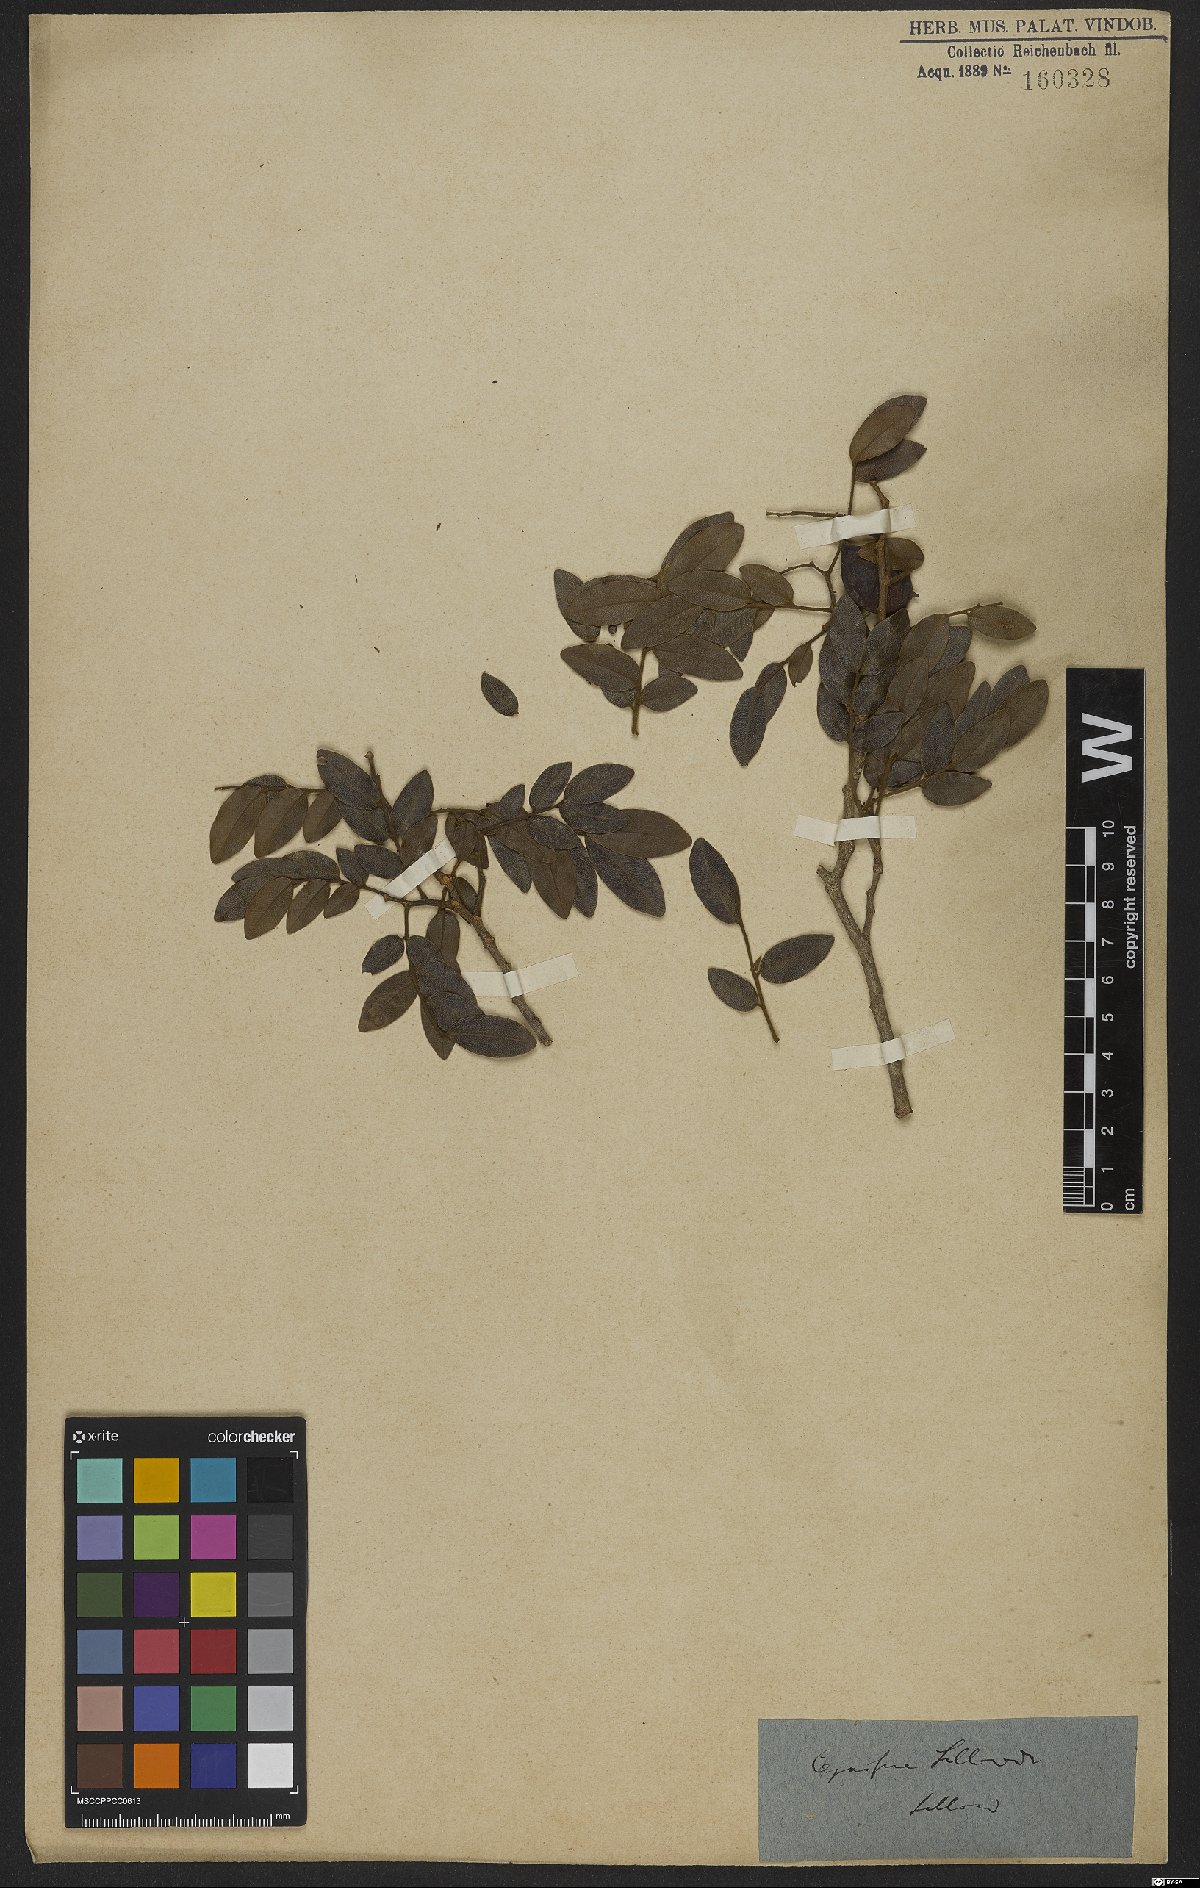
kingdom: Plantae
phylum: Tracheophyta
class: Magnoliopsida
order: Fabales
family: Fabaceae
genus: Copaifera
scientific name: Copaifera langsdorffii
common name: Brazilian diesel tree
